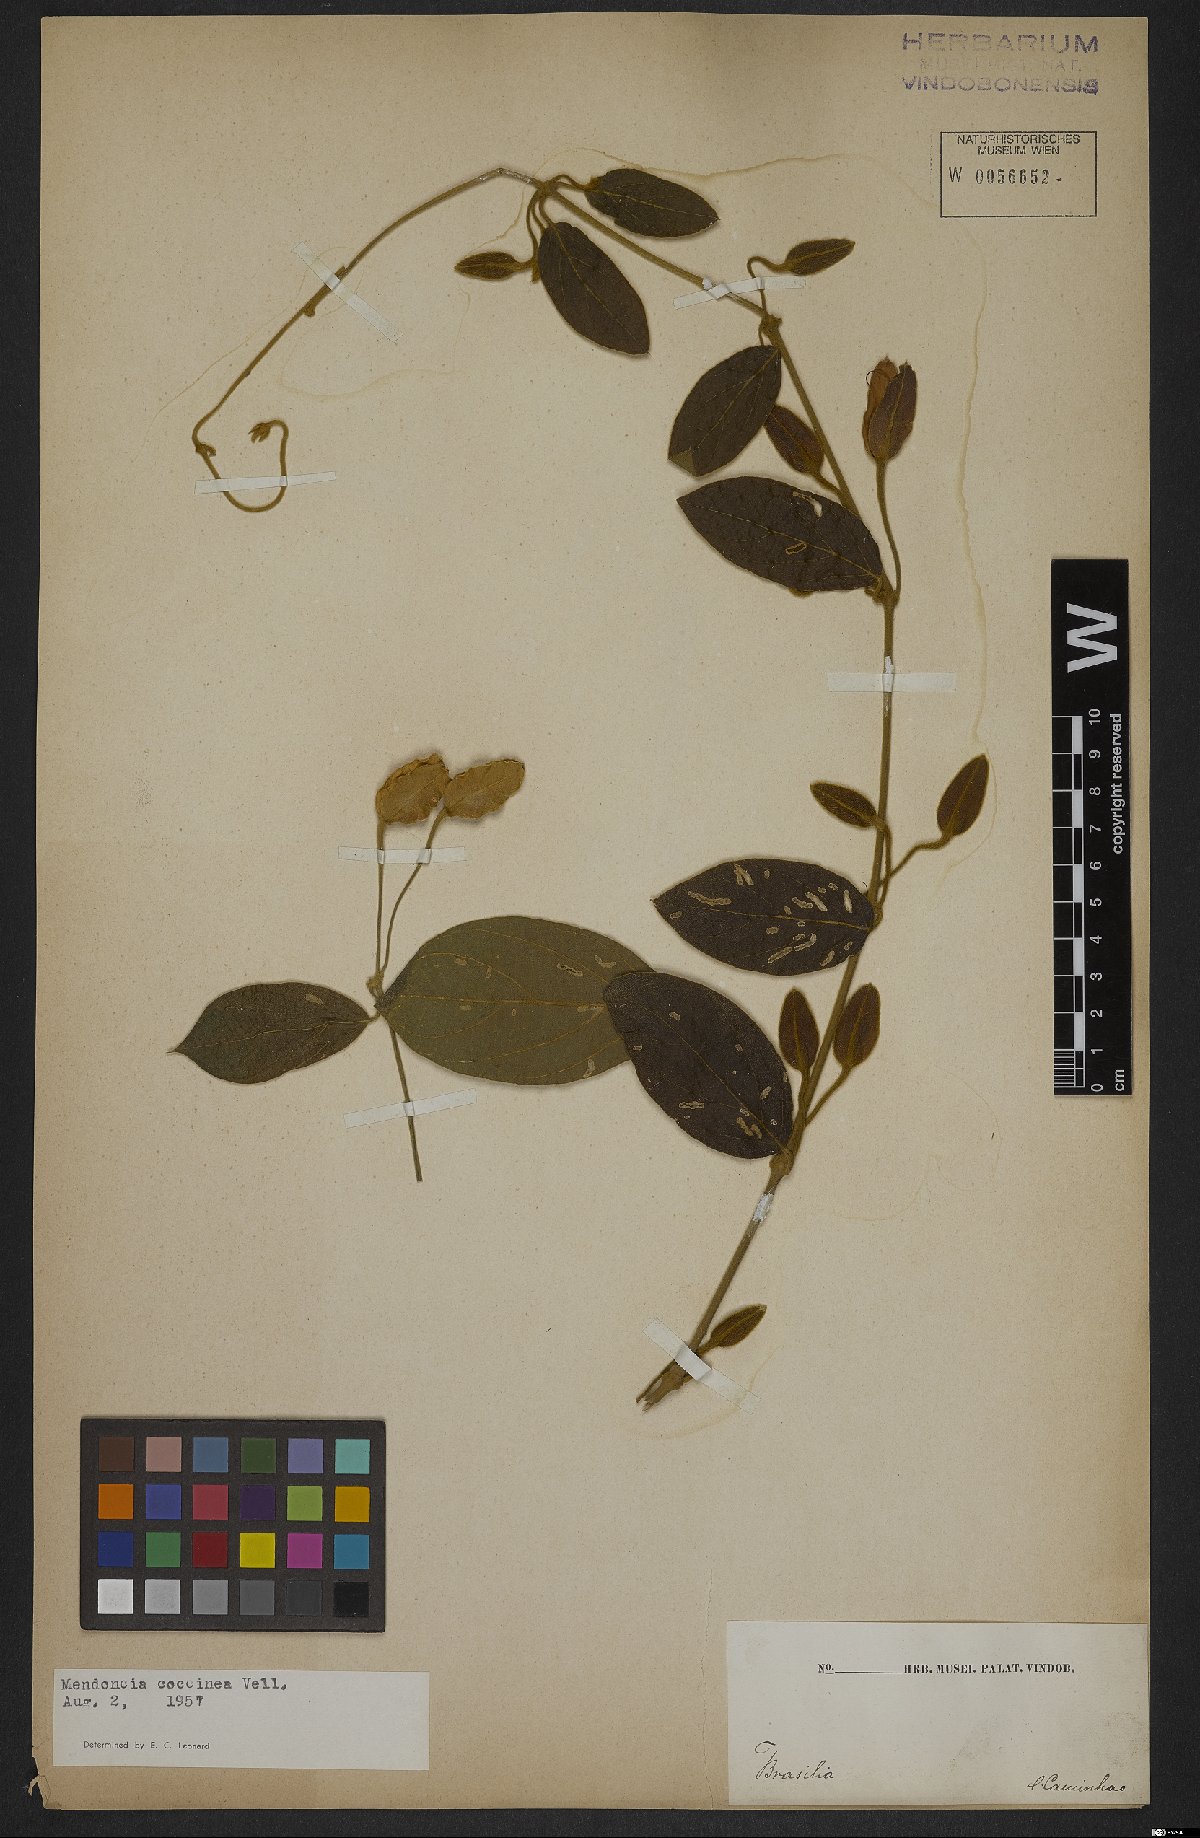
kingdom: Plantae
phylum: Tracheophyta
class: Magnoliopsida
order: Lamiales
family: Acanthaceae
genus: Mendoncia
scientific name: Mendoncia coccinea
